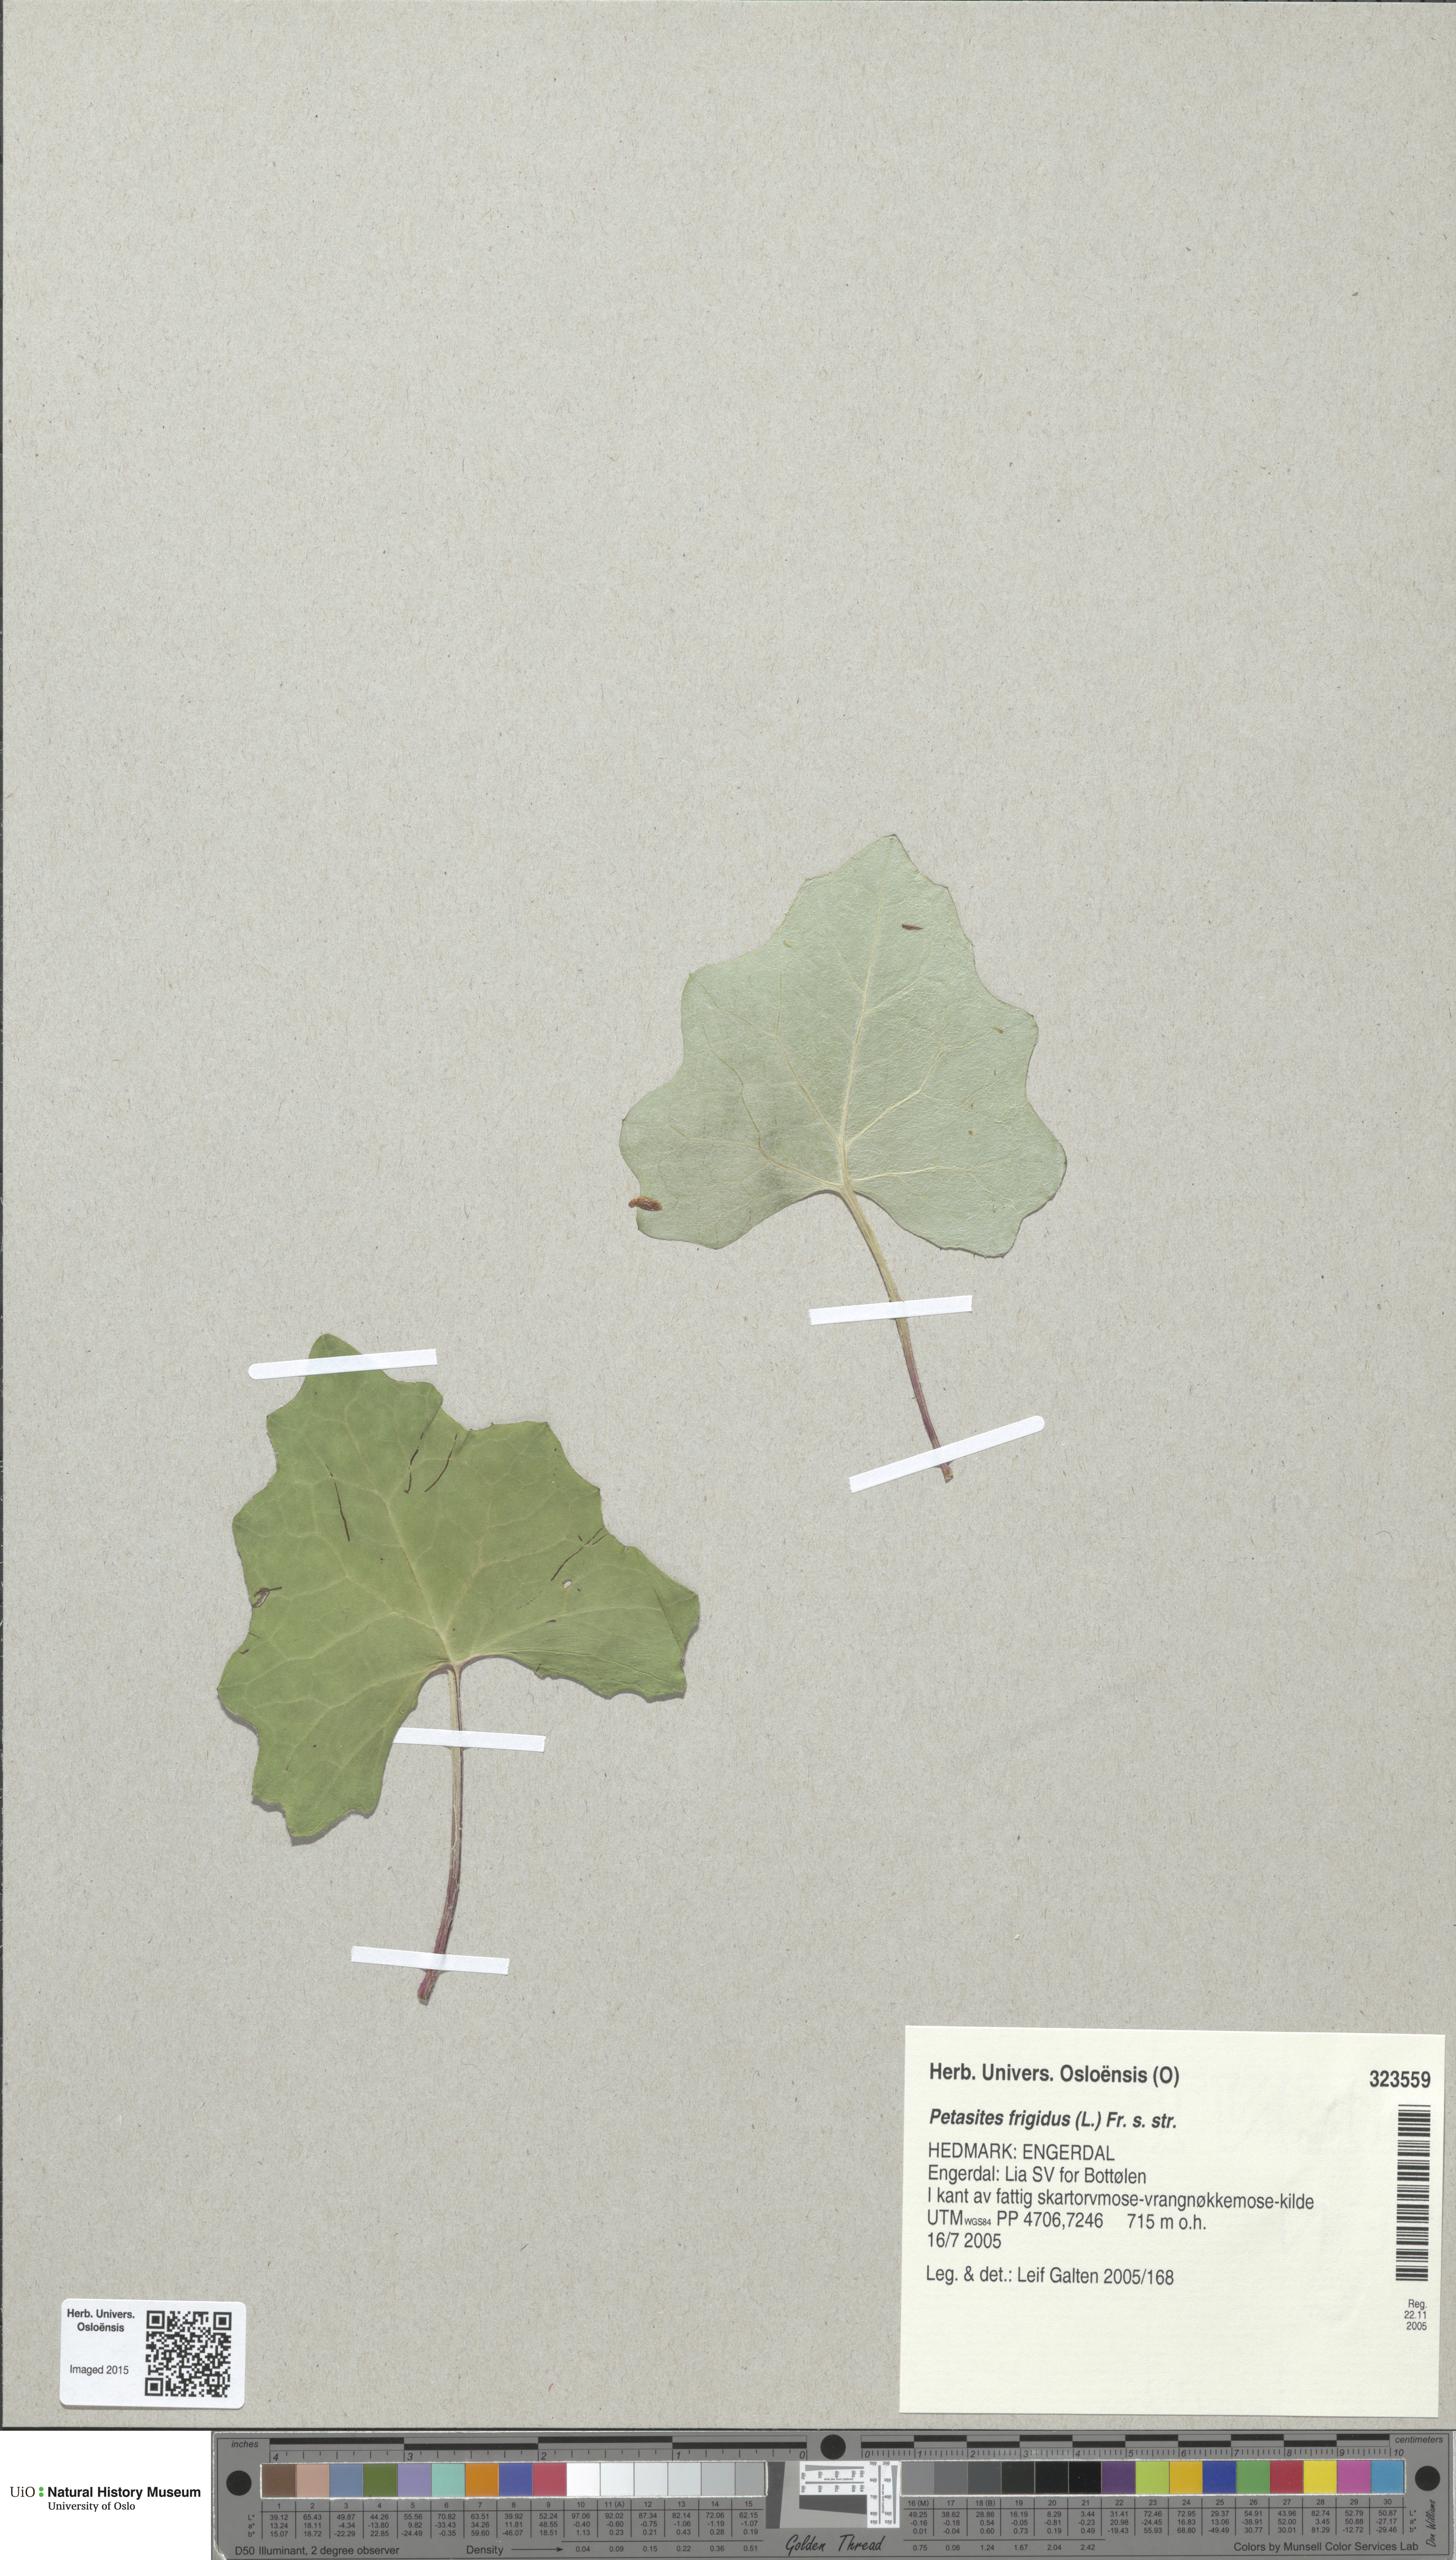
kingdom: Plantae
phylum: Tracheophyta
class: Magnoliopsida
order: Asterales
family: Asteraceae
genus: Petasites
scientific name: Petasites frigidus
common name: Arctic butterbur
